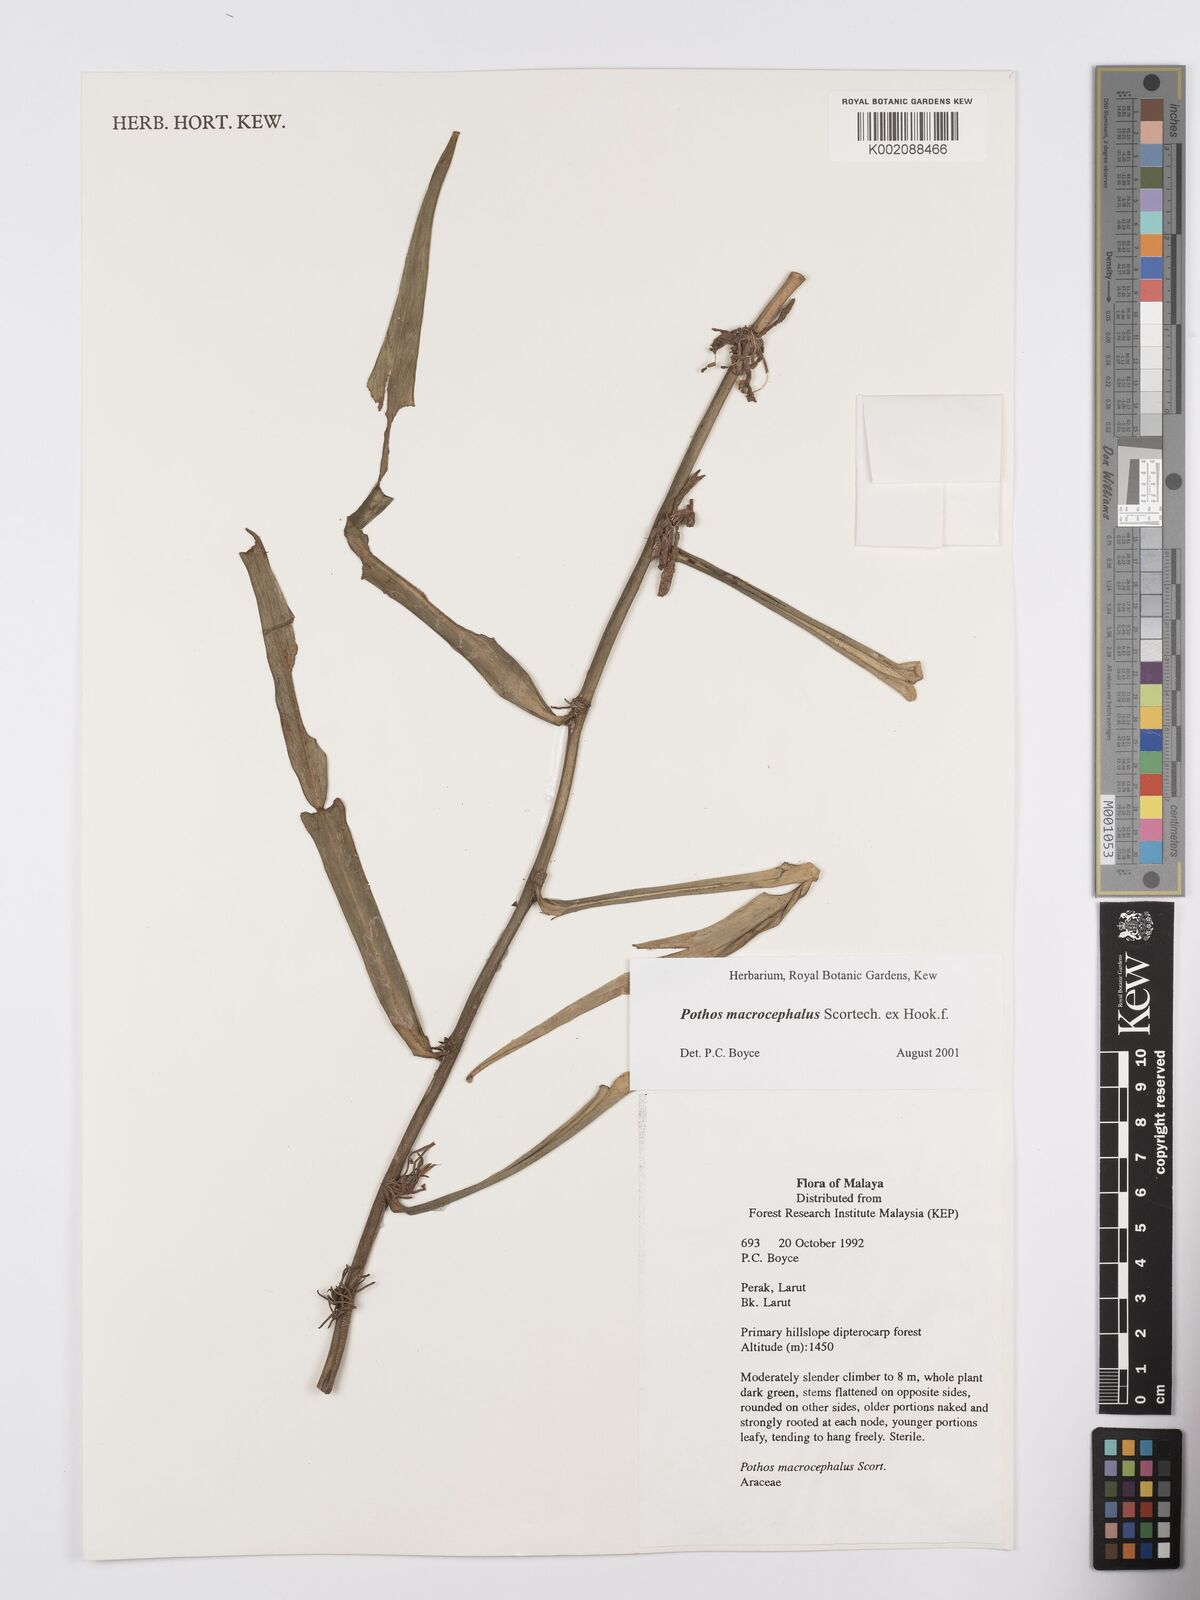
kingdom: Plantae
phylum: Tracheophyta
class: Liliopsida
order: Alismatales
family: Araceae
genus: Pothos
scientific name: Pothos macrocephalus
